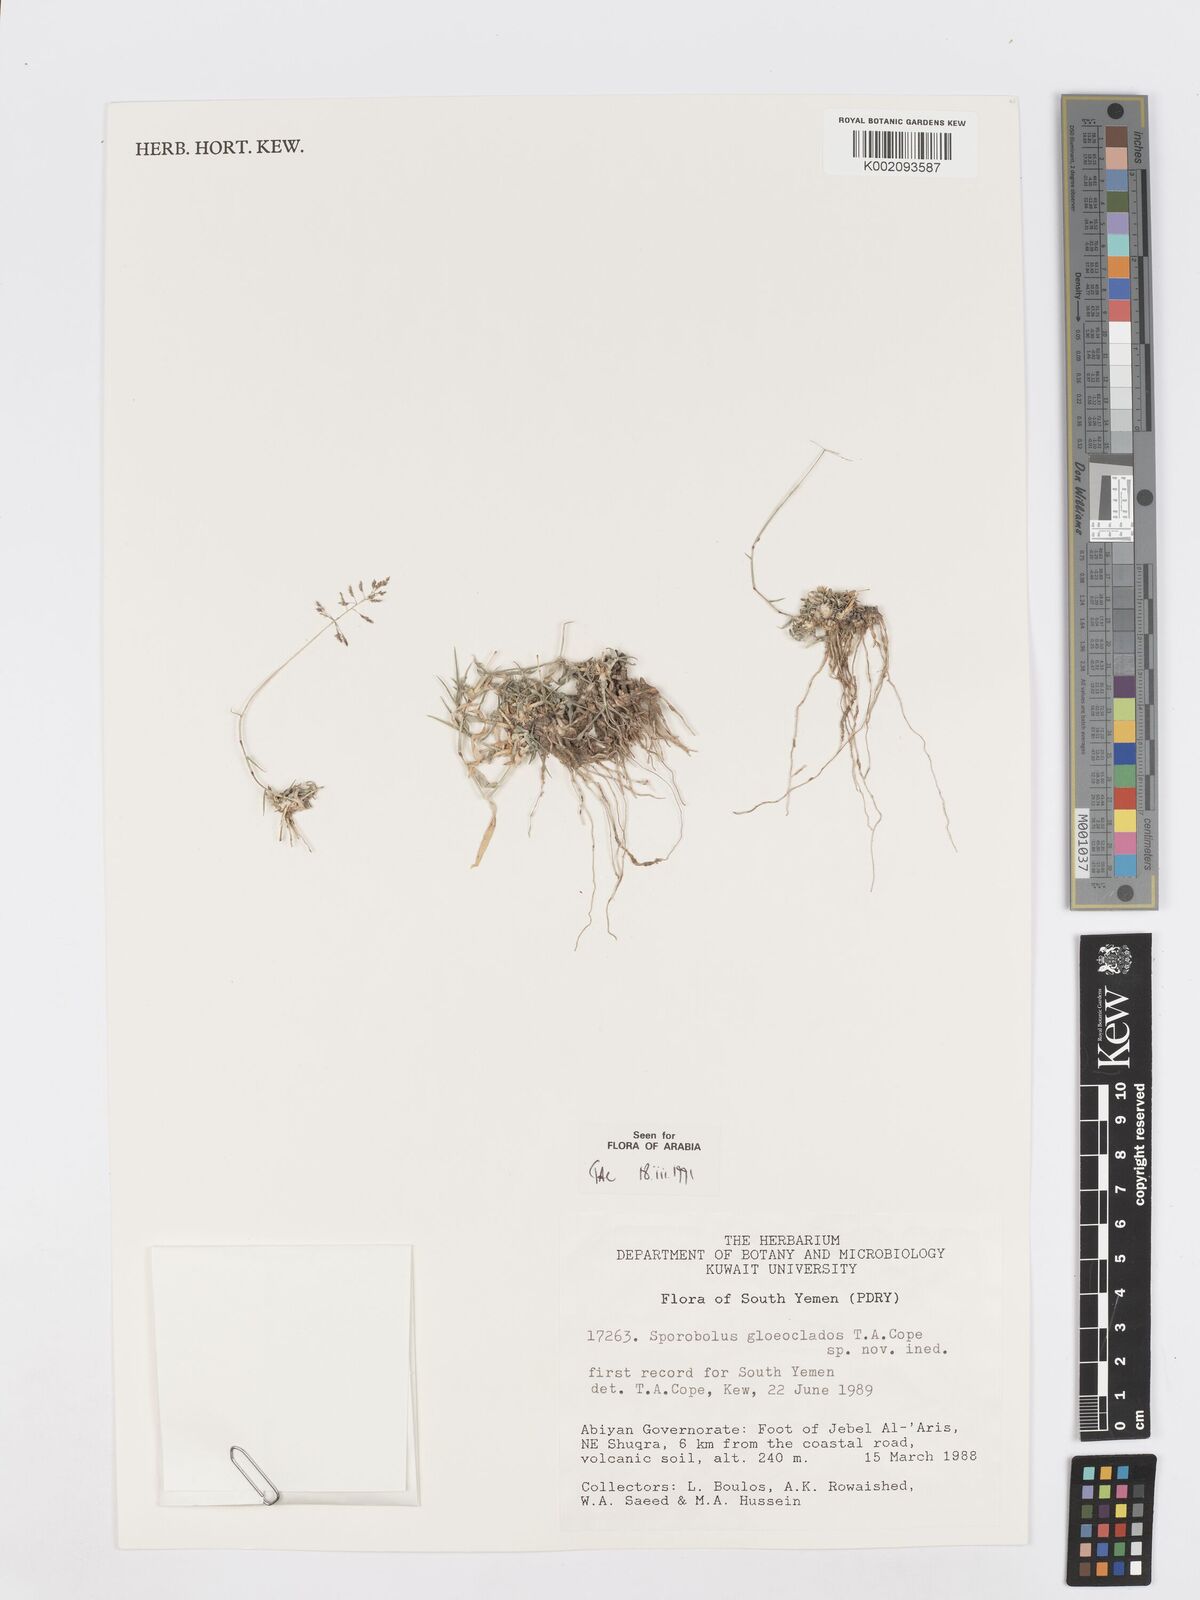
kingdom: Plantae
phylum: Tracheophyta
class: Liliopsida
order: Poales
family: Poaceae
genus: Sporobolus
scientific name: Sporobolus gloeoclados
